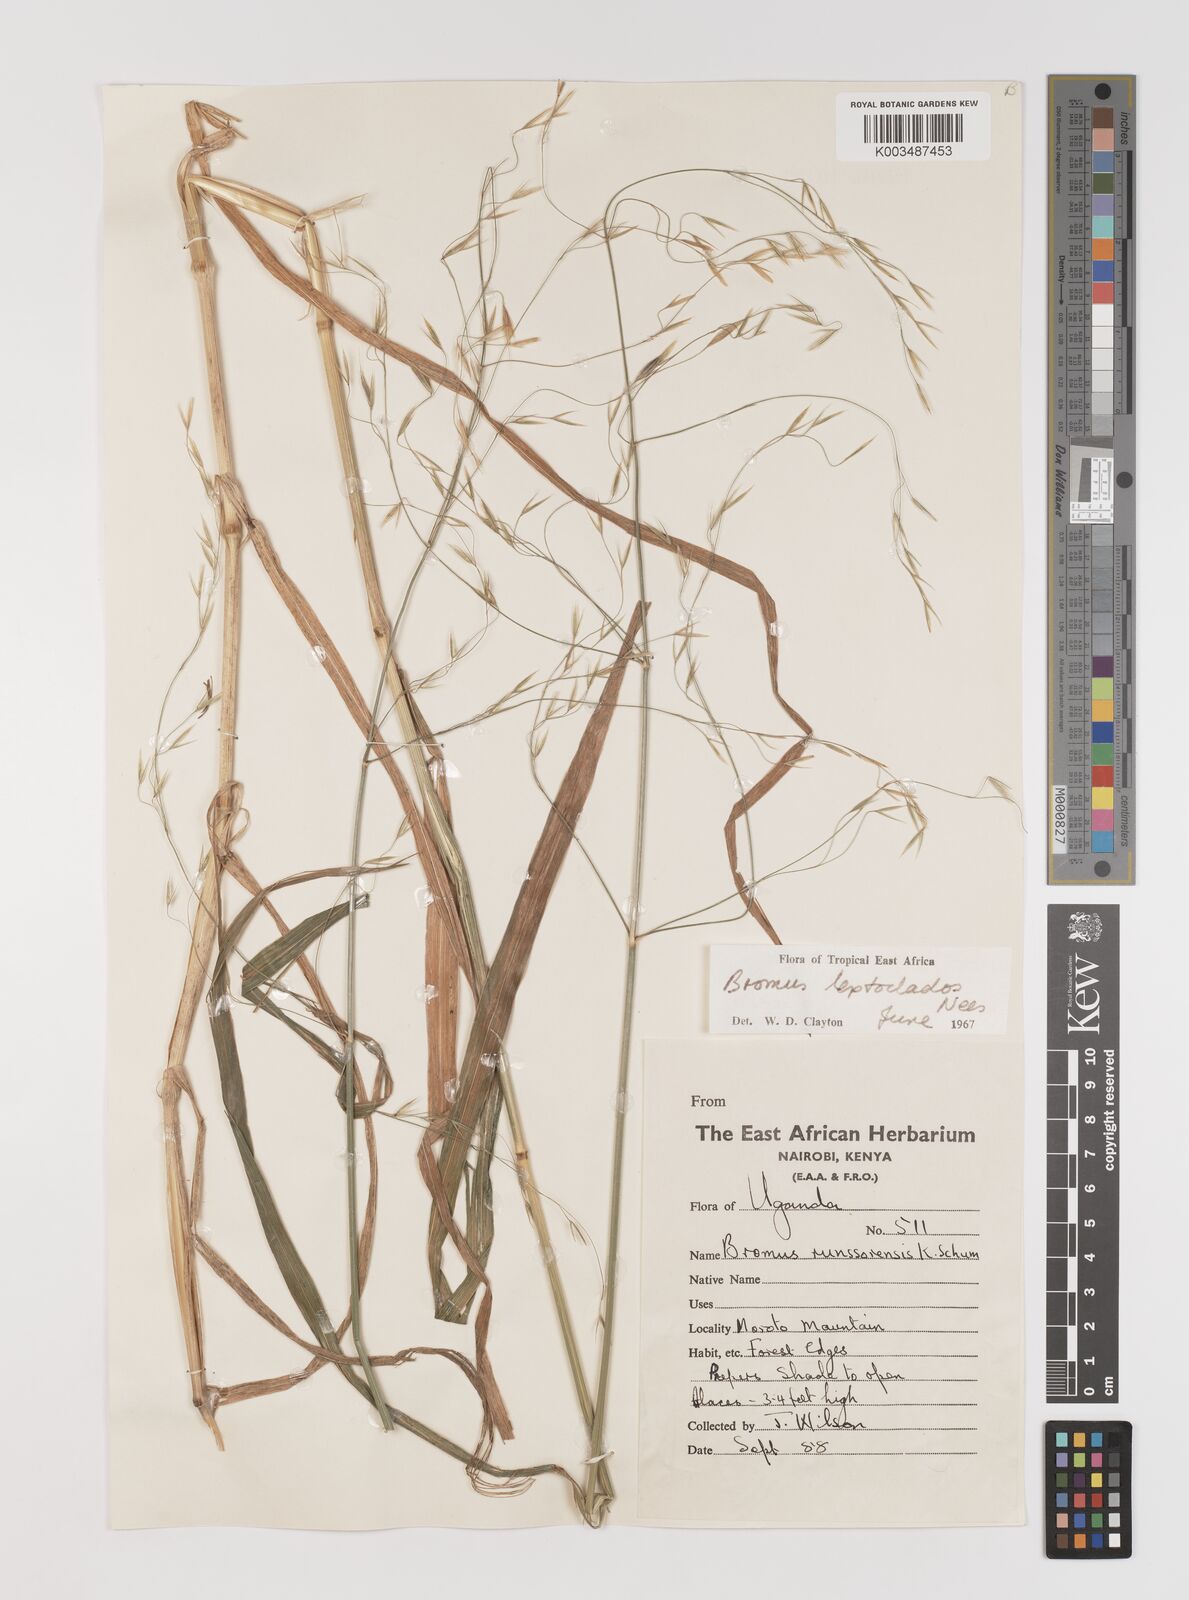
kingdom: Plantae
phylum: Tracheophyta
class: Liliopsida
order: Poales
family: Poaceae
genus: Bromus
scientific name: Bromus leptoclados
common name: Mountain bromegrass
